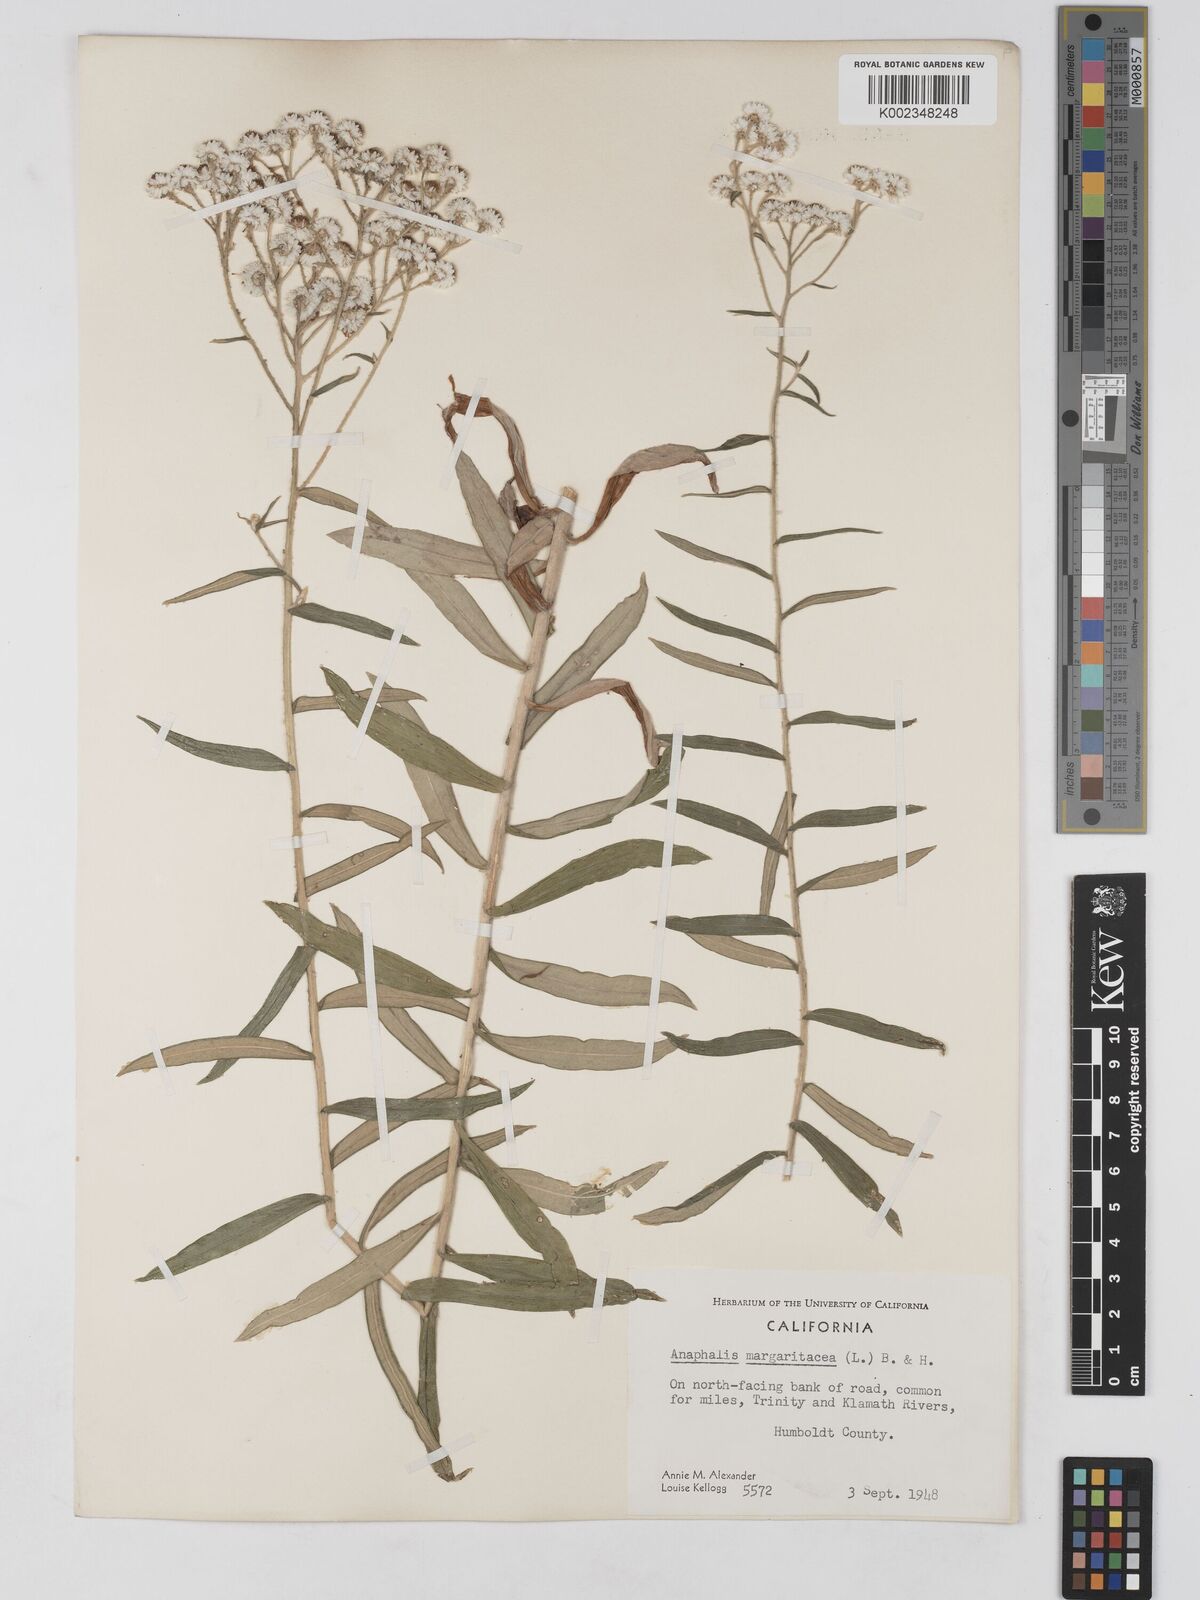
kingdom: Plantae
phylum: Tracheophyta
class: Magnoliopsida
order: Asterales
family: Asteraceae
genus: Anaphalis
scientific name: Anaphalis margaritacea
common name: Pearly everlasting
